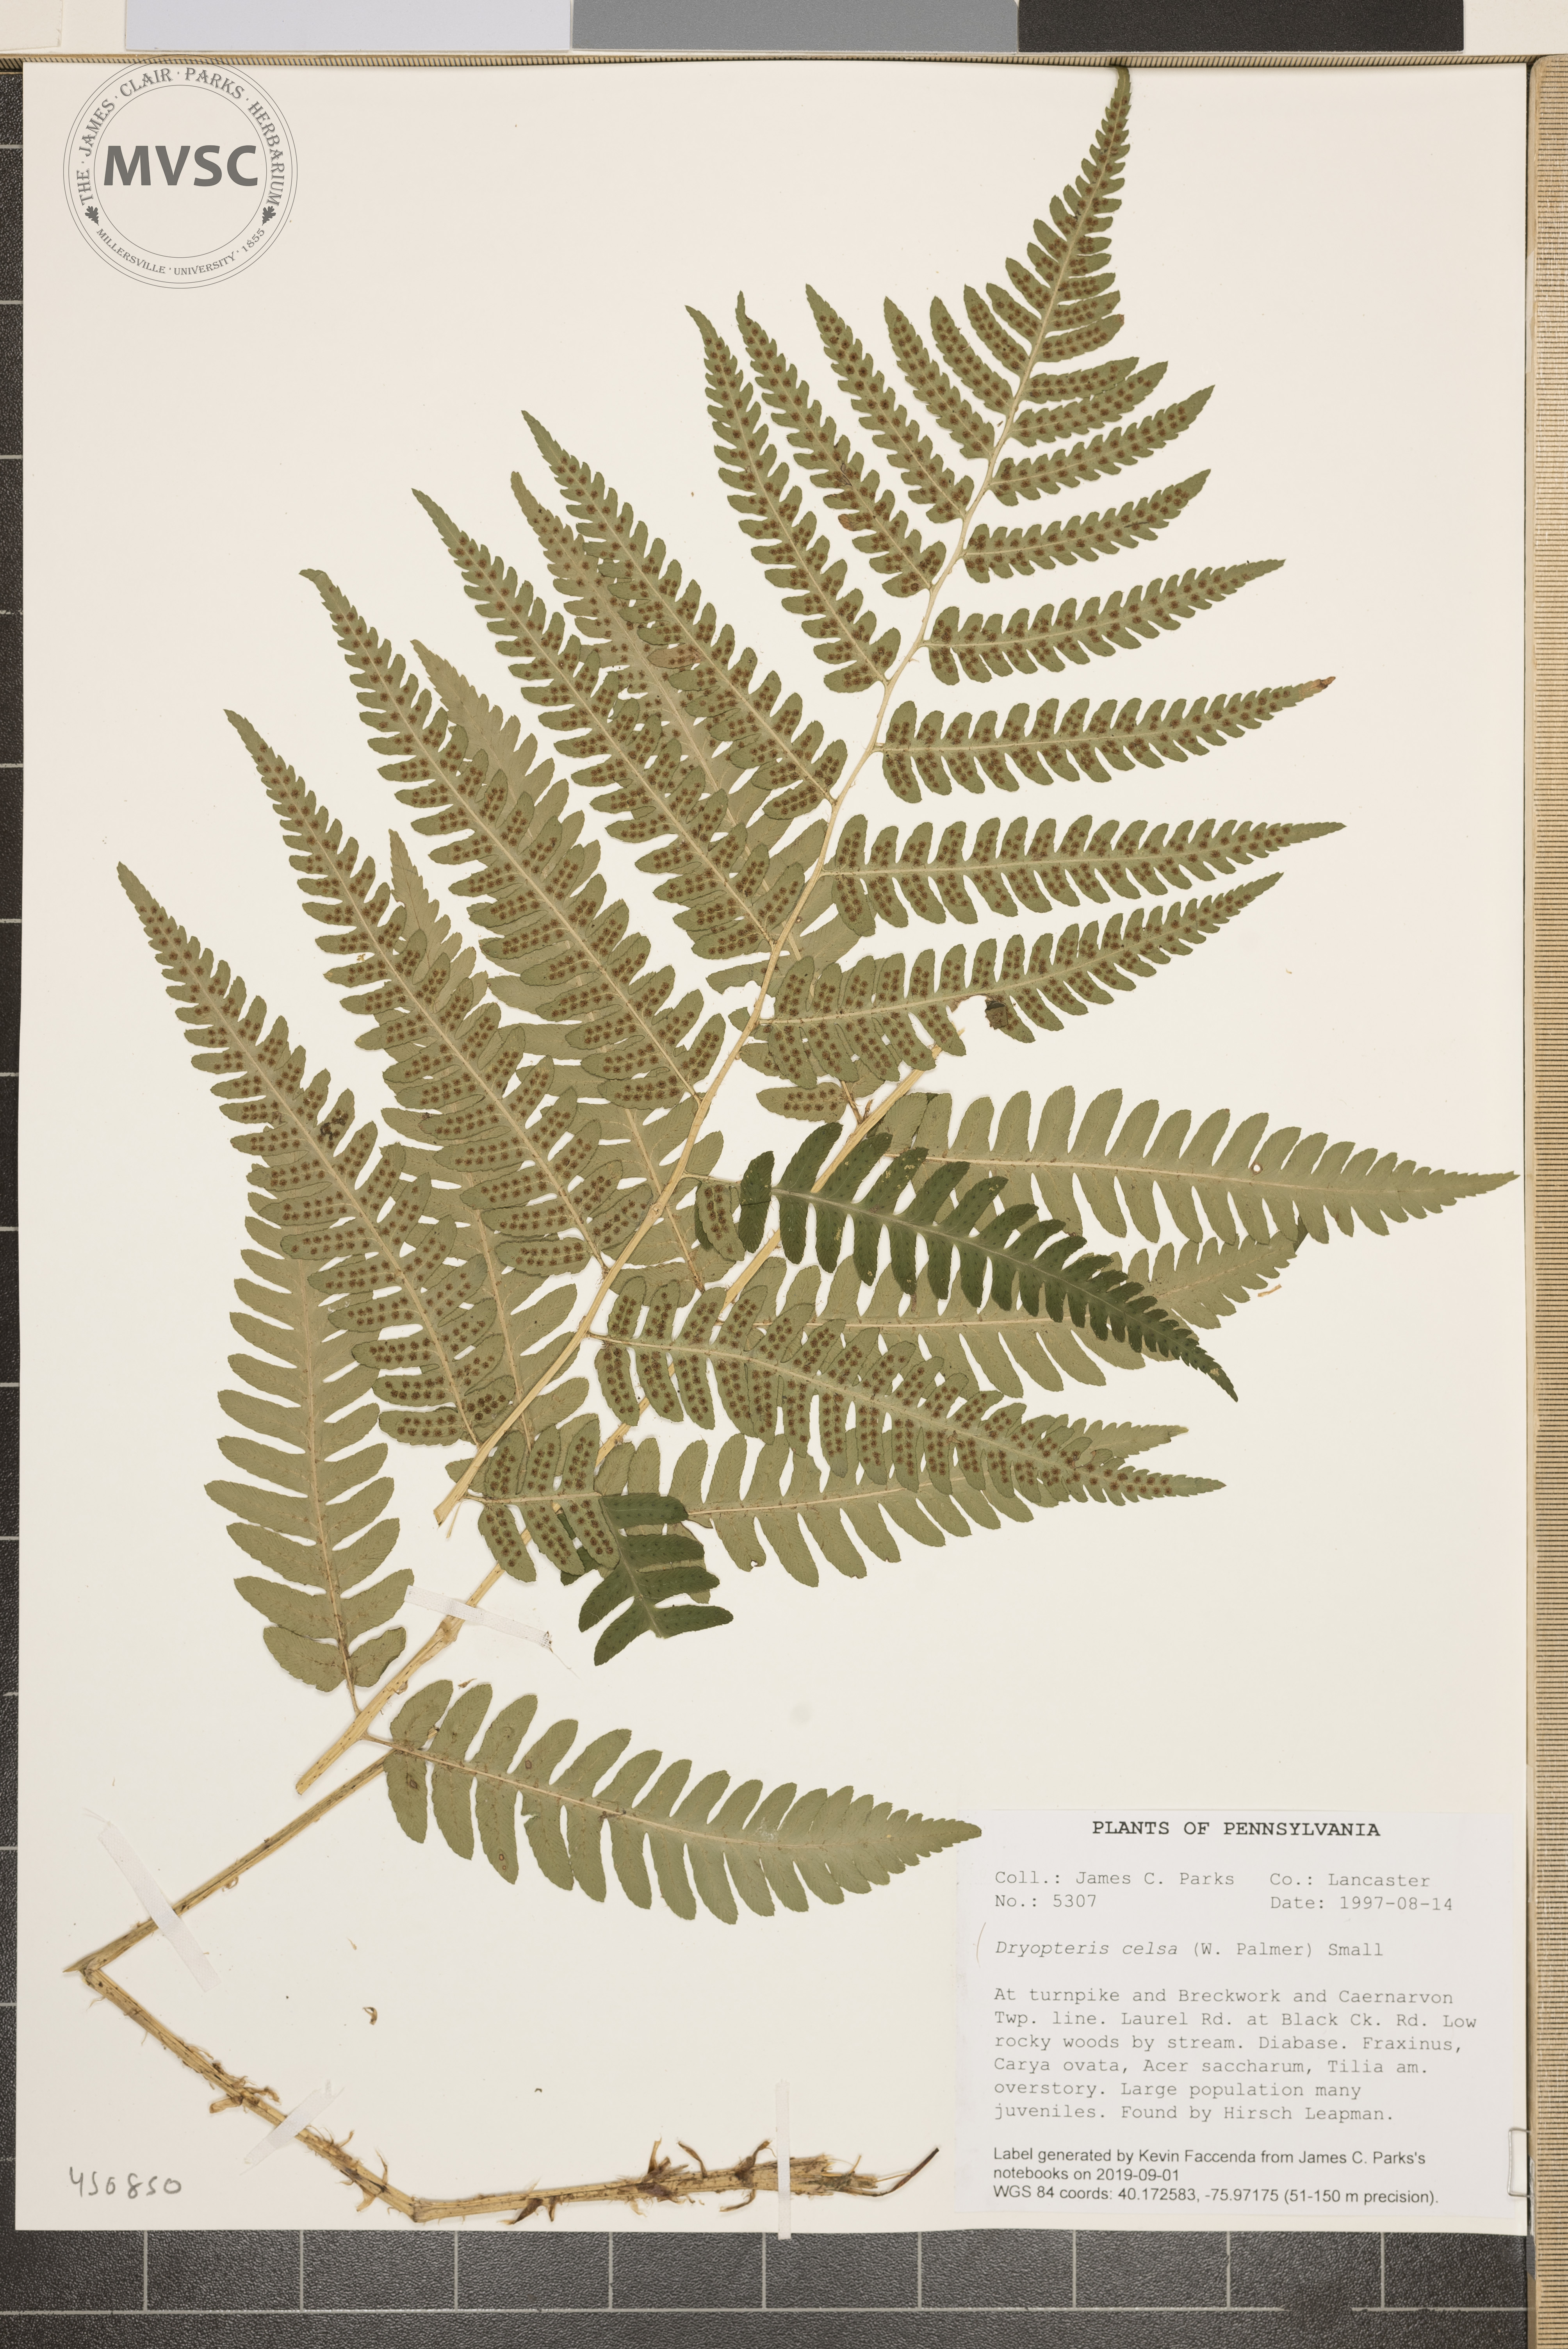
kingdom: Plantae
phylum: Tracheophyta
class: Polypodiopsida
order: Polypodiales
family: Dryopteridaceae
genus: Dryopteris
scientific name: Dryopteris celsa
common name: Log fern
